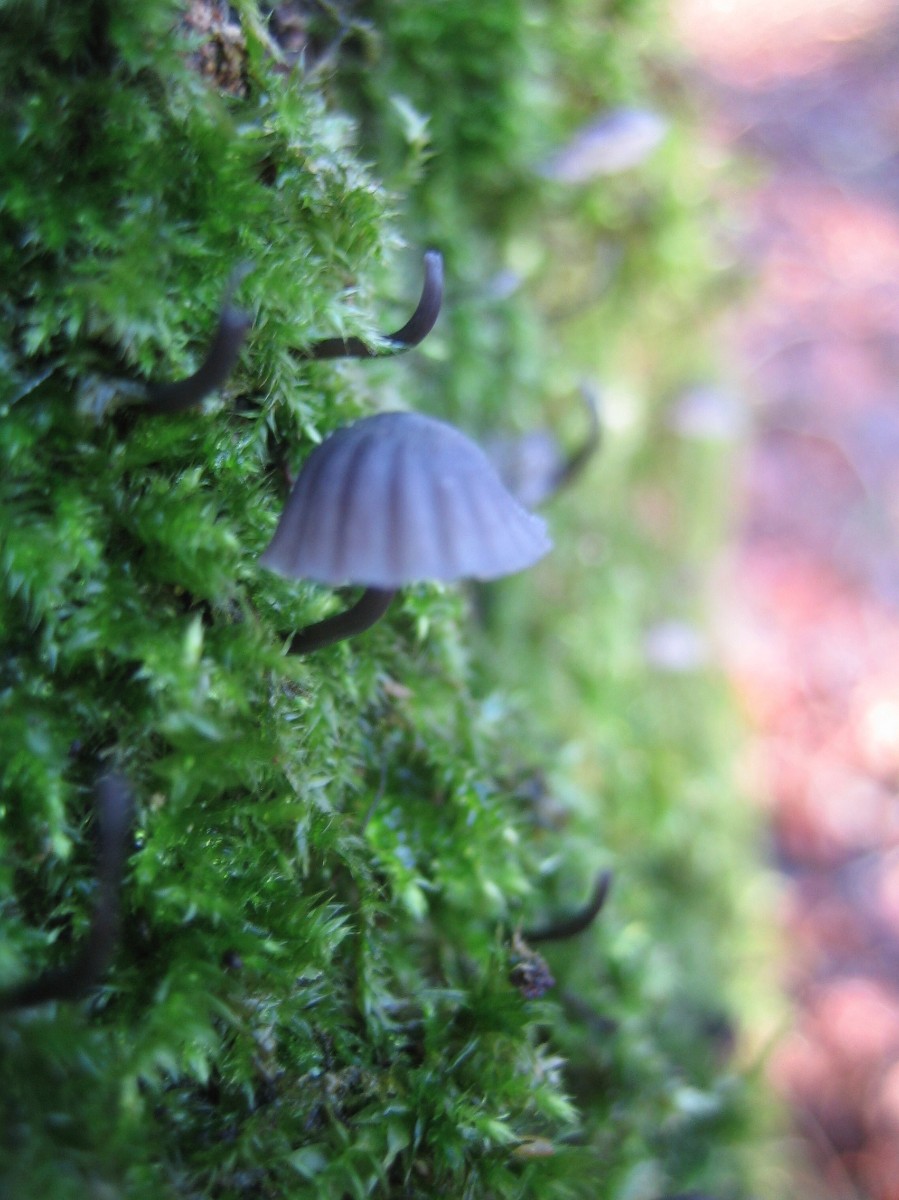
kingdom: Fungi
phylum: Basidiomycota
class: Agaricomycetes
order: Agaricales
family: Mycenaceae
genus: Mycena
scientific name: Mycena pseudocorticola
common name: gråblå bark-huesvamp
